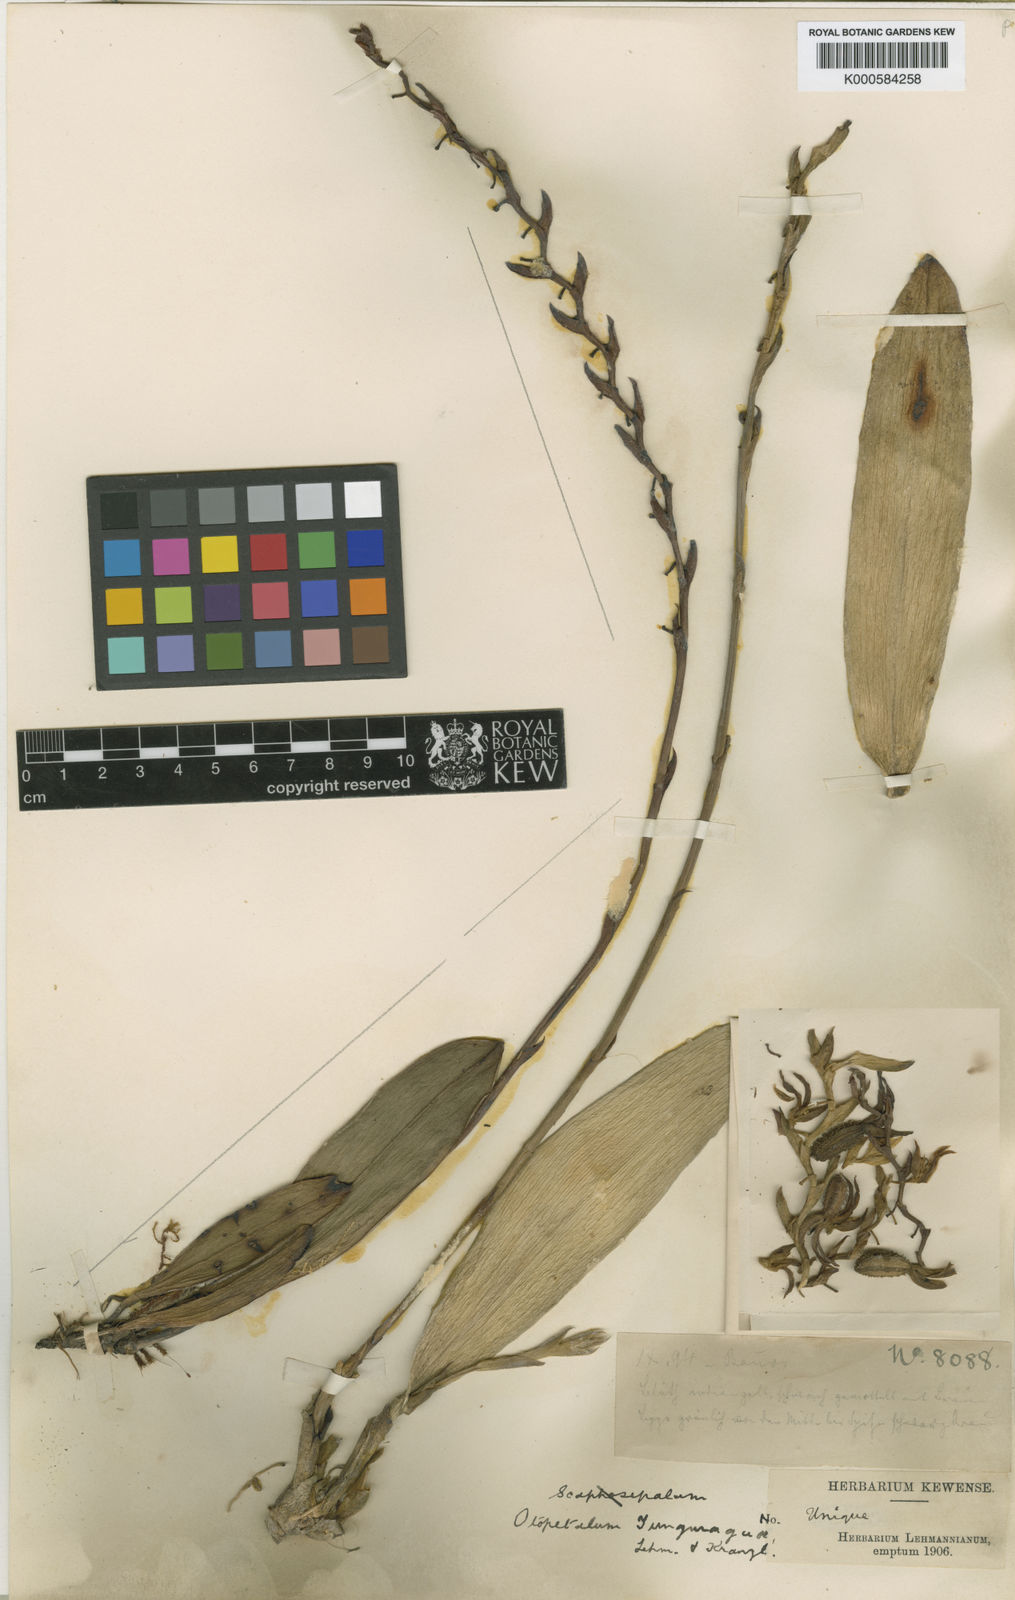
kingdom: Plantae
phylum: Tracheophyta
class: Liliopsida
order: Asparagales
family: Orchidaceae
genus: Acianthera
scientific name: Acianthera tunguraguae
